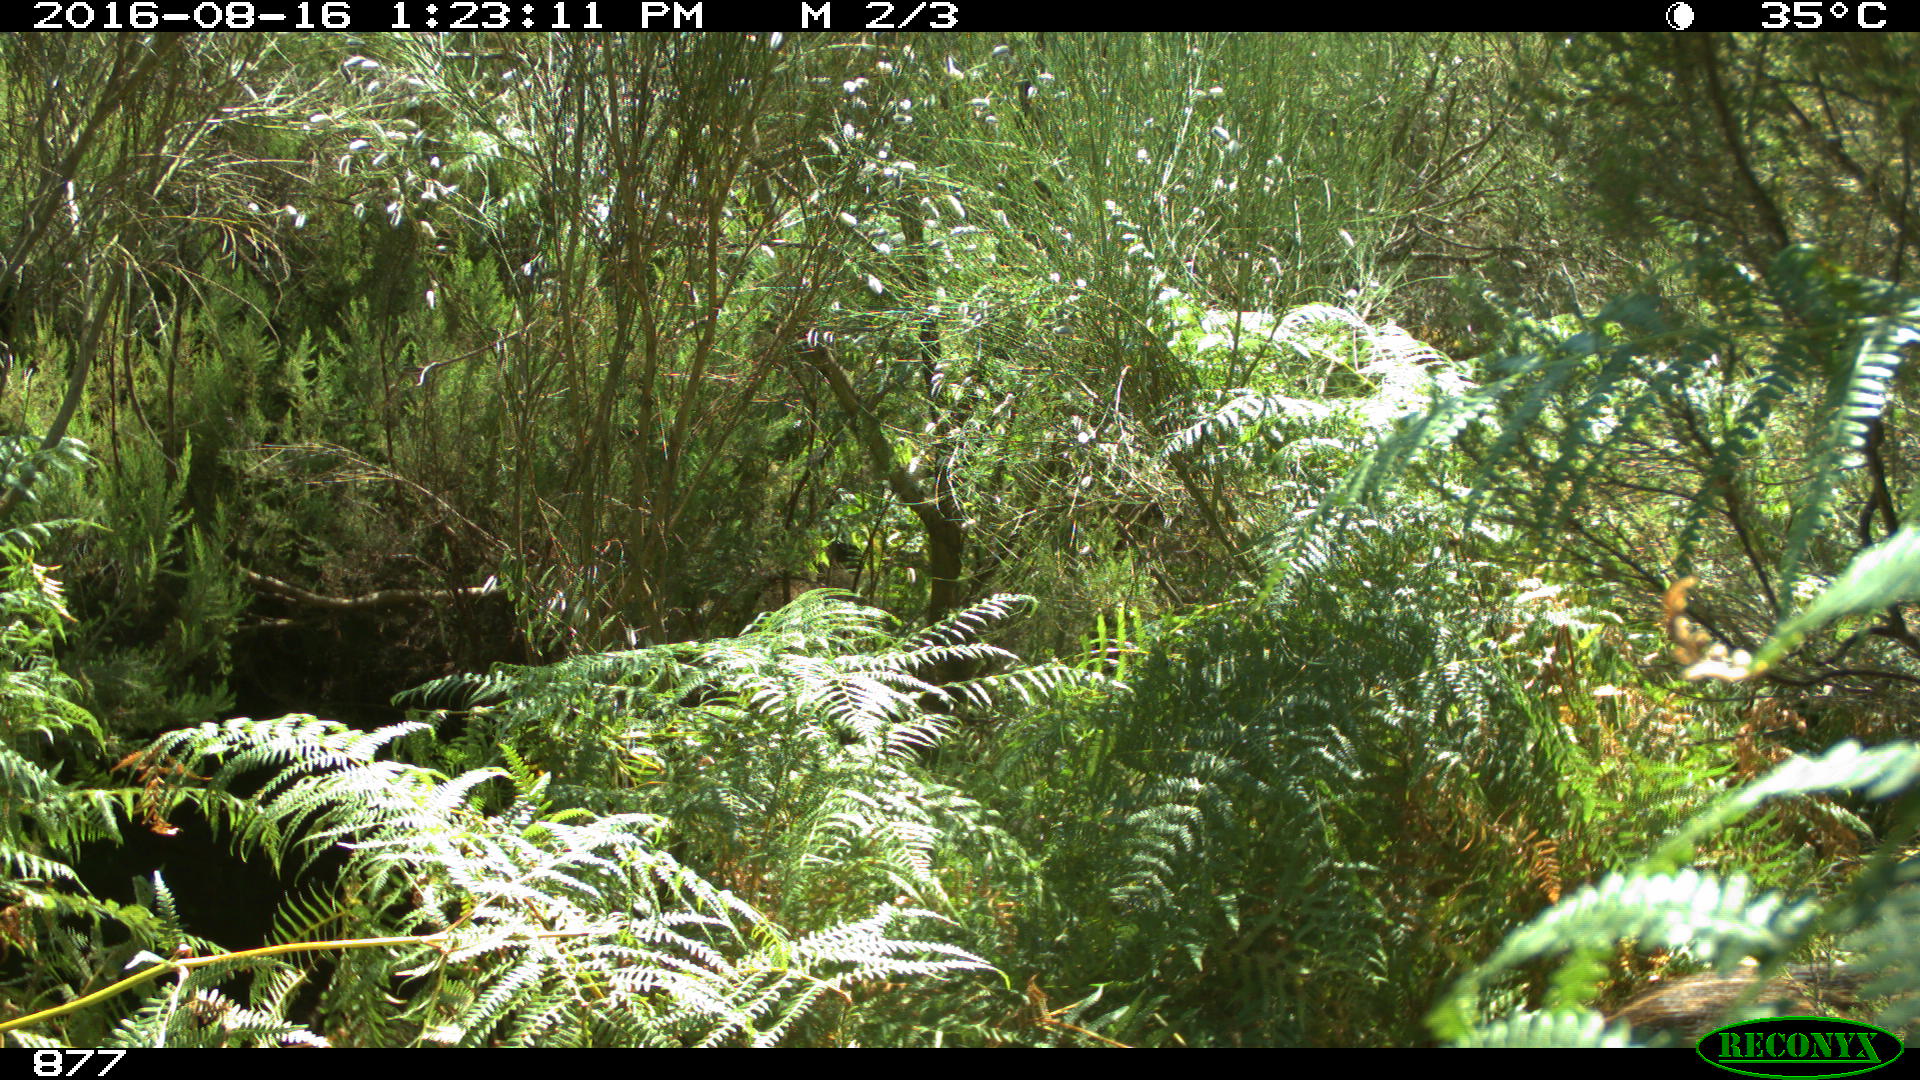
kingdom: Animalia
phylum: Chordata
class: Mammalia
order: Artiodactyla
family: Suidae
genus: Sus
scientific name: Sus scrofa
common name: Wild boar
